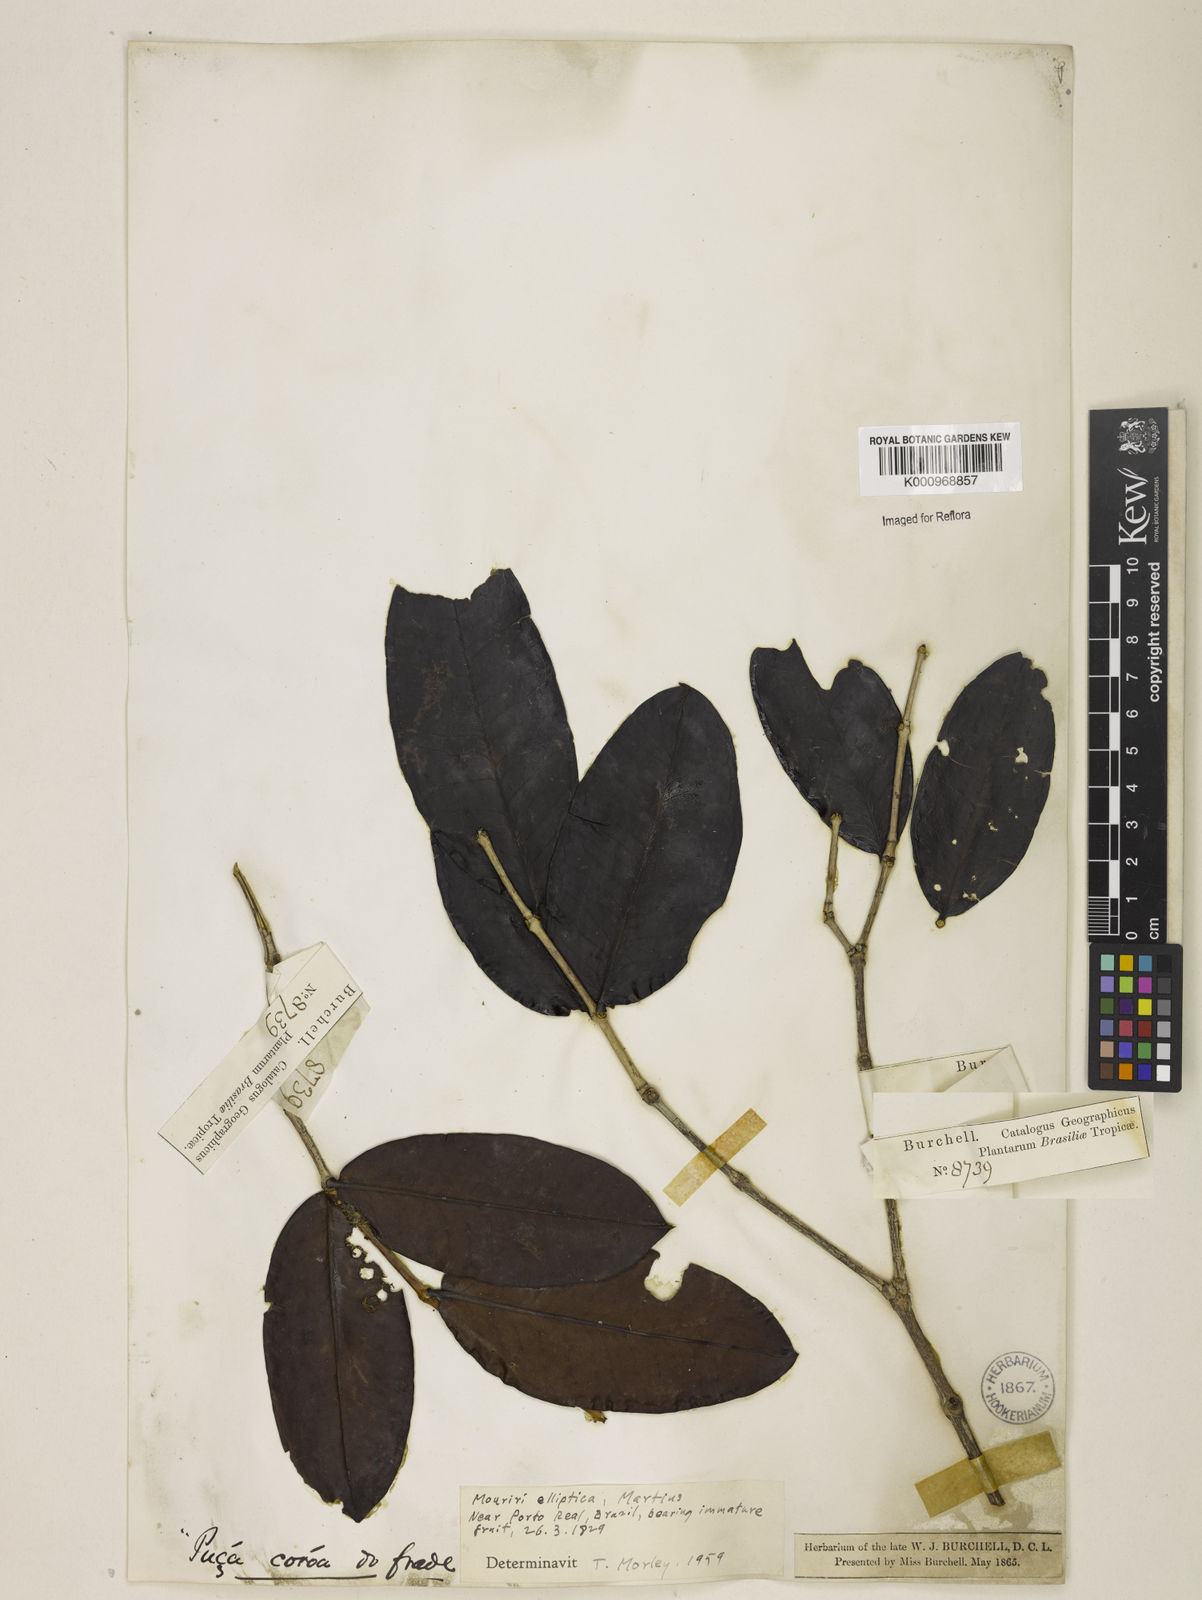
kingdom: Plantae
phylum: Tracheophyta
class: Magnoliopsida
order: Myrtales
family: Melastomataceae
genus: Mouriri
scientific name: Mouriri elliptica
